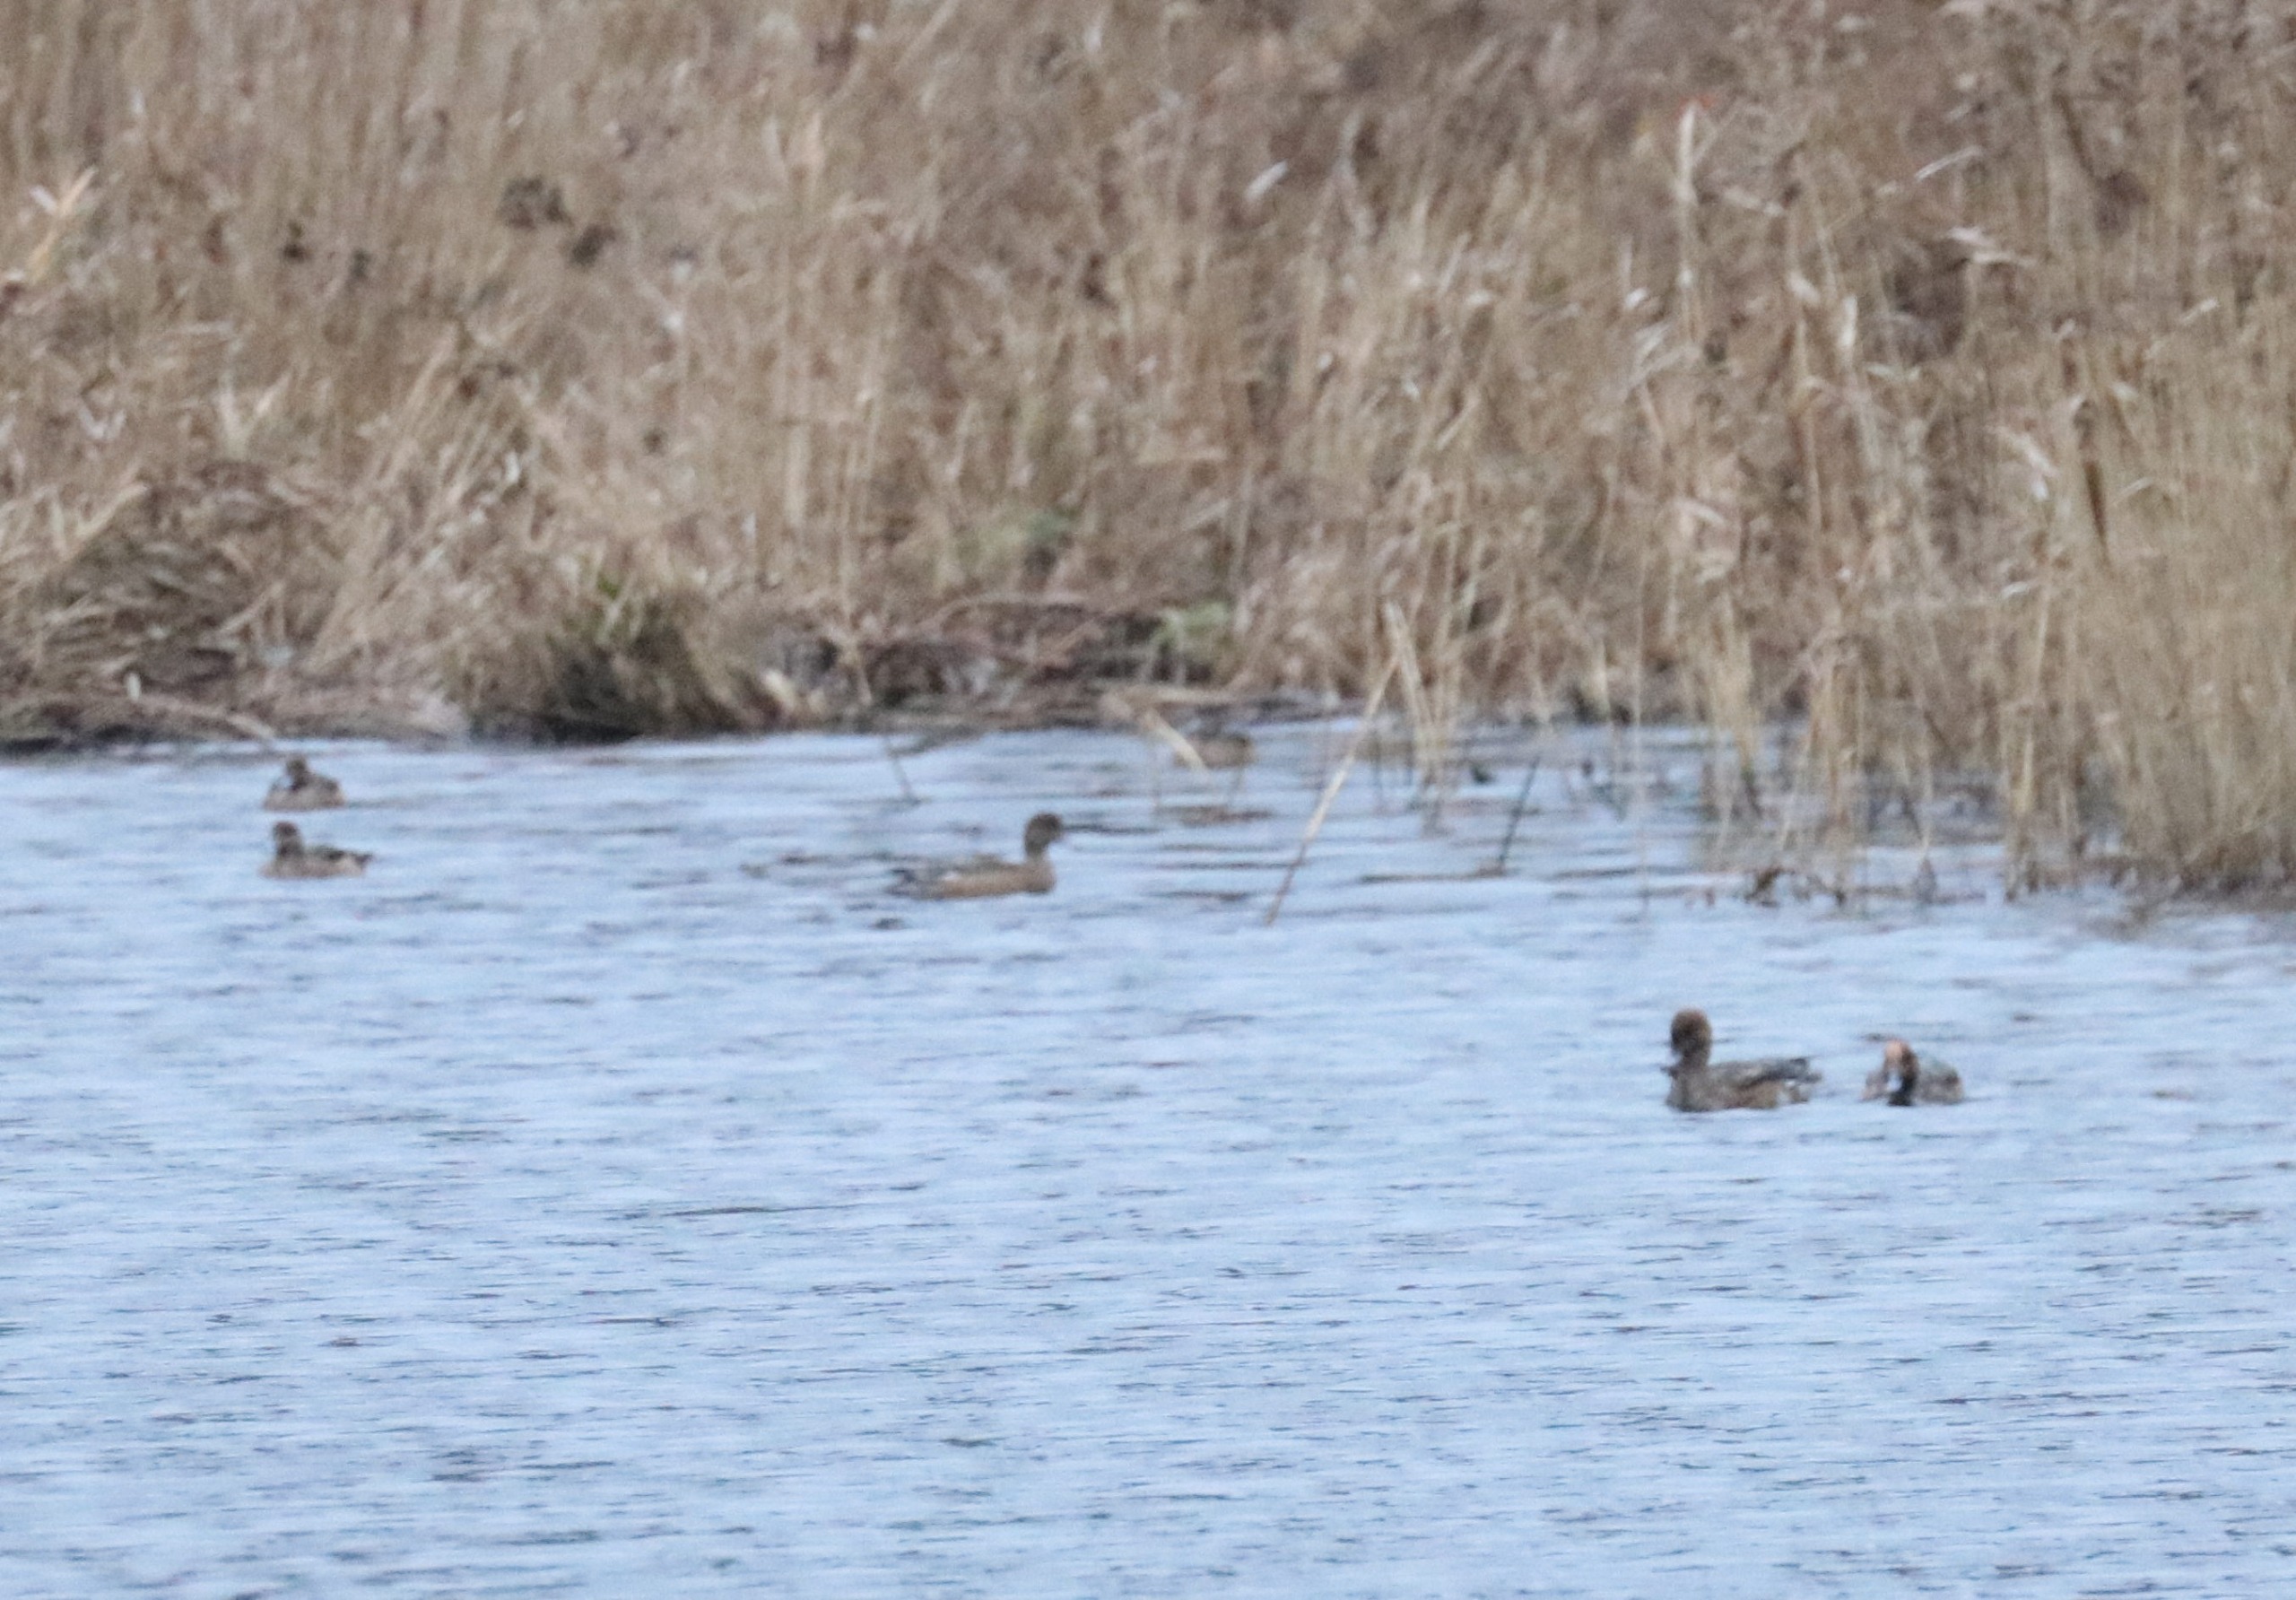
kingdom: Animalia
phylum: Chordata
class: Aves
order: Anseriformes
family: Anatidae
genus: Mareca
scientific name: Mareca penelope
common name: Pibeand
